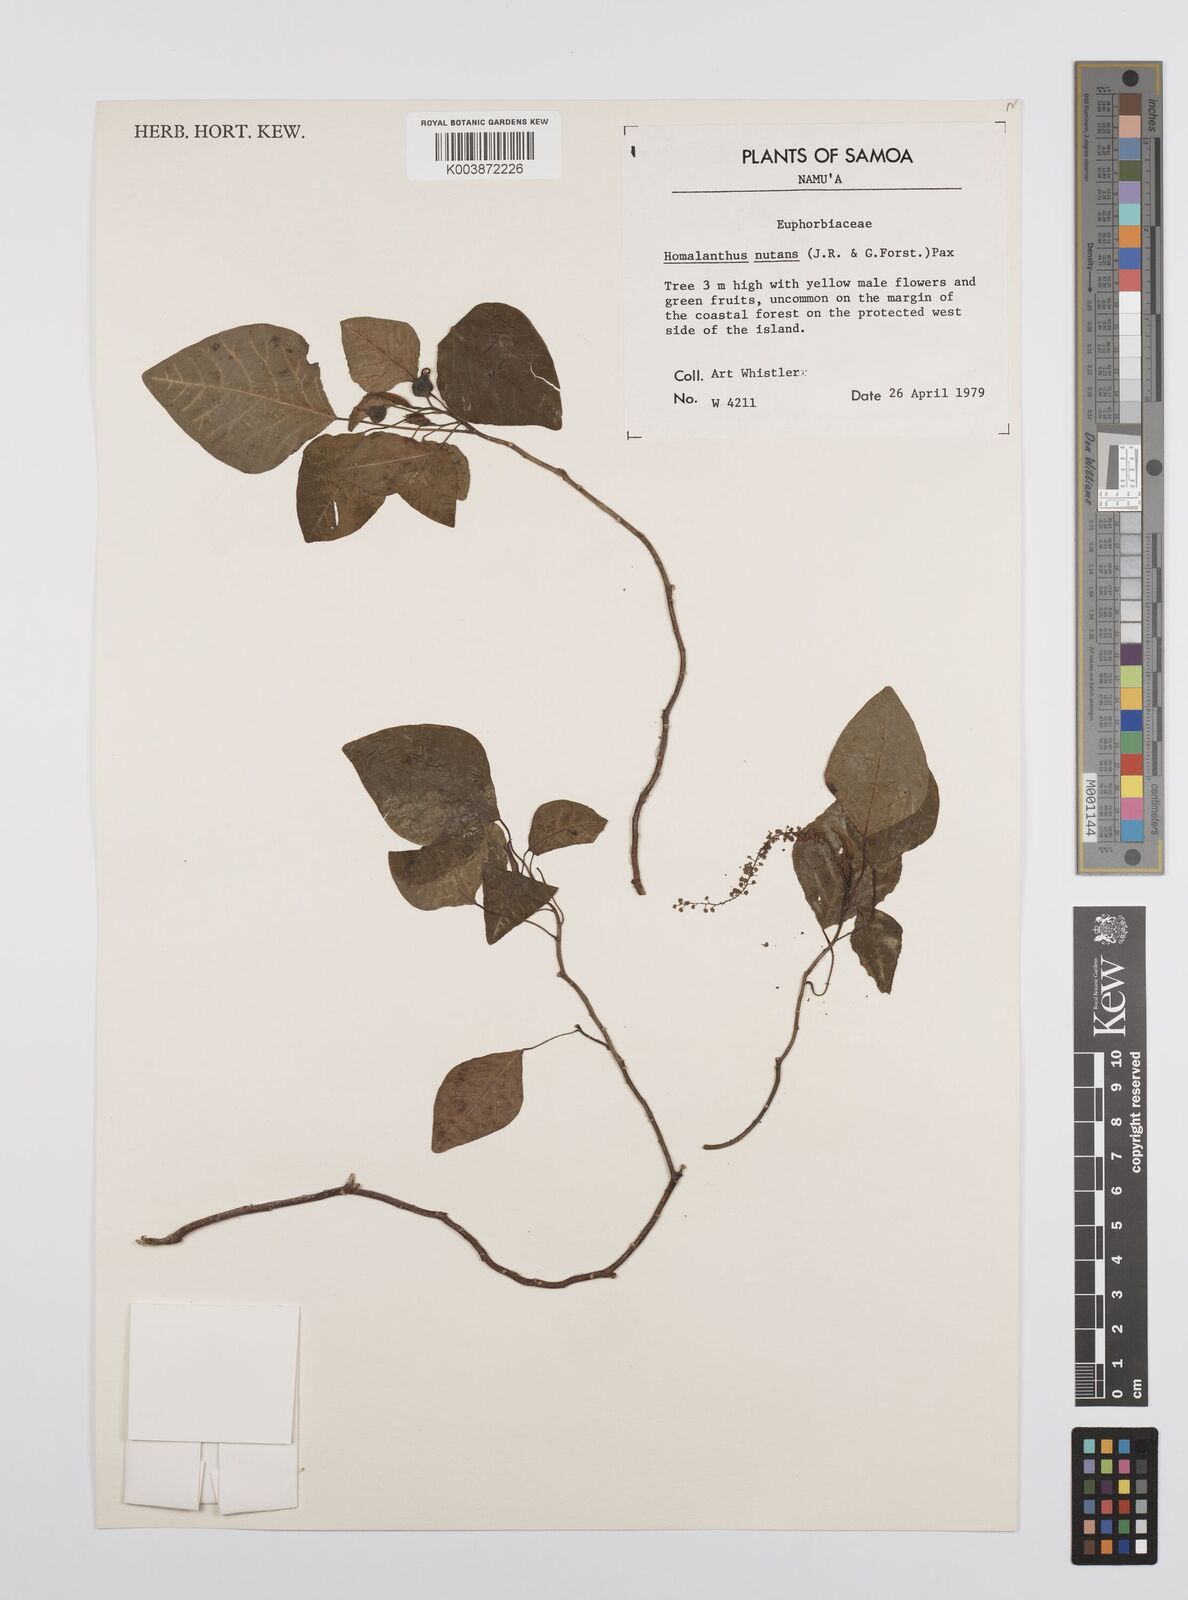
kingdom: Plantae
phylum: Tracheophyta
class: Magnoliopsida
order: Malpighiales
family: Euphorbiaceae
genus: Homalanthus
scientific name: Homalanthus nutans
